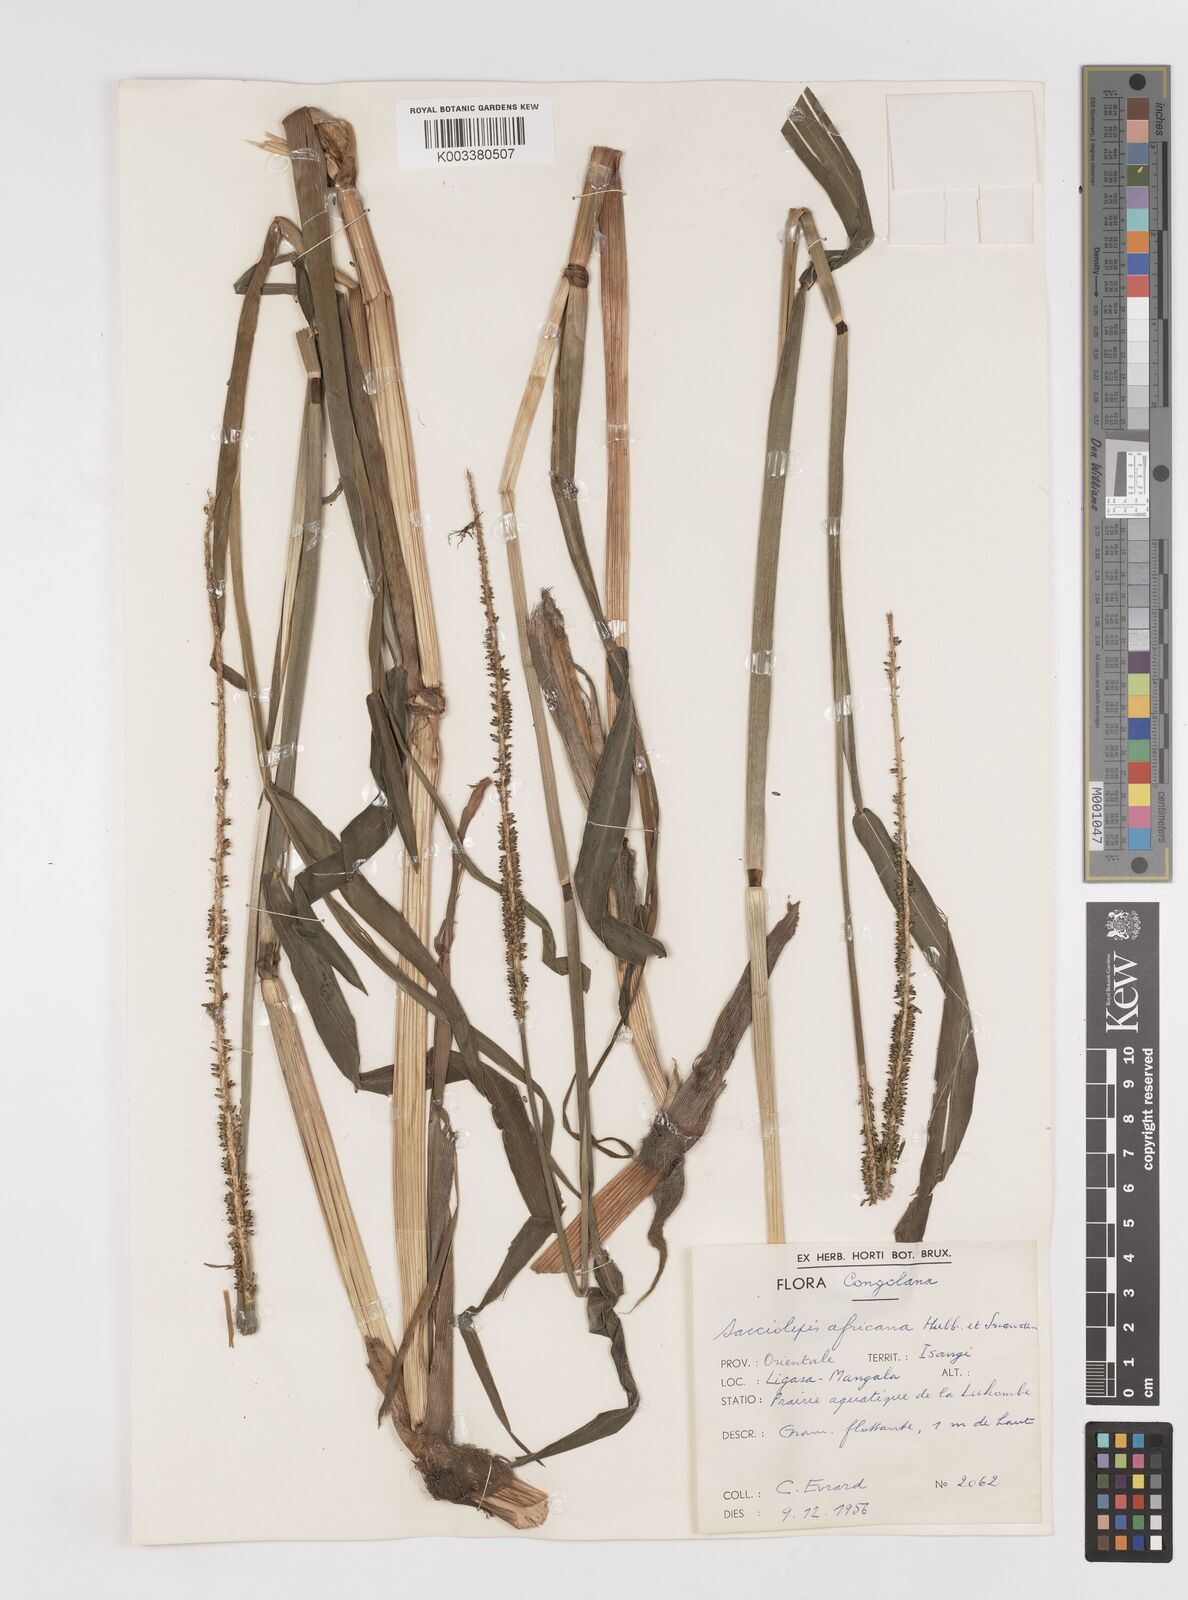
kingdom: Plantae
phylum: Tracheophyta
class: Liliopsida
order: Poales
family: Poaceae
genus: Sacciolepis
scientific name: Sacciolepis africana
